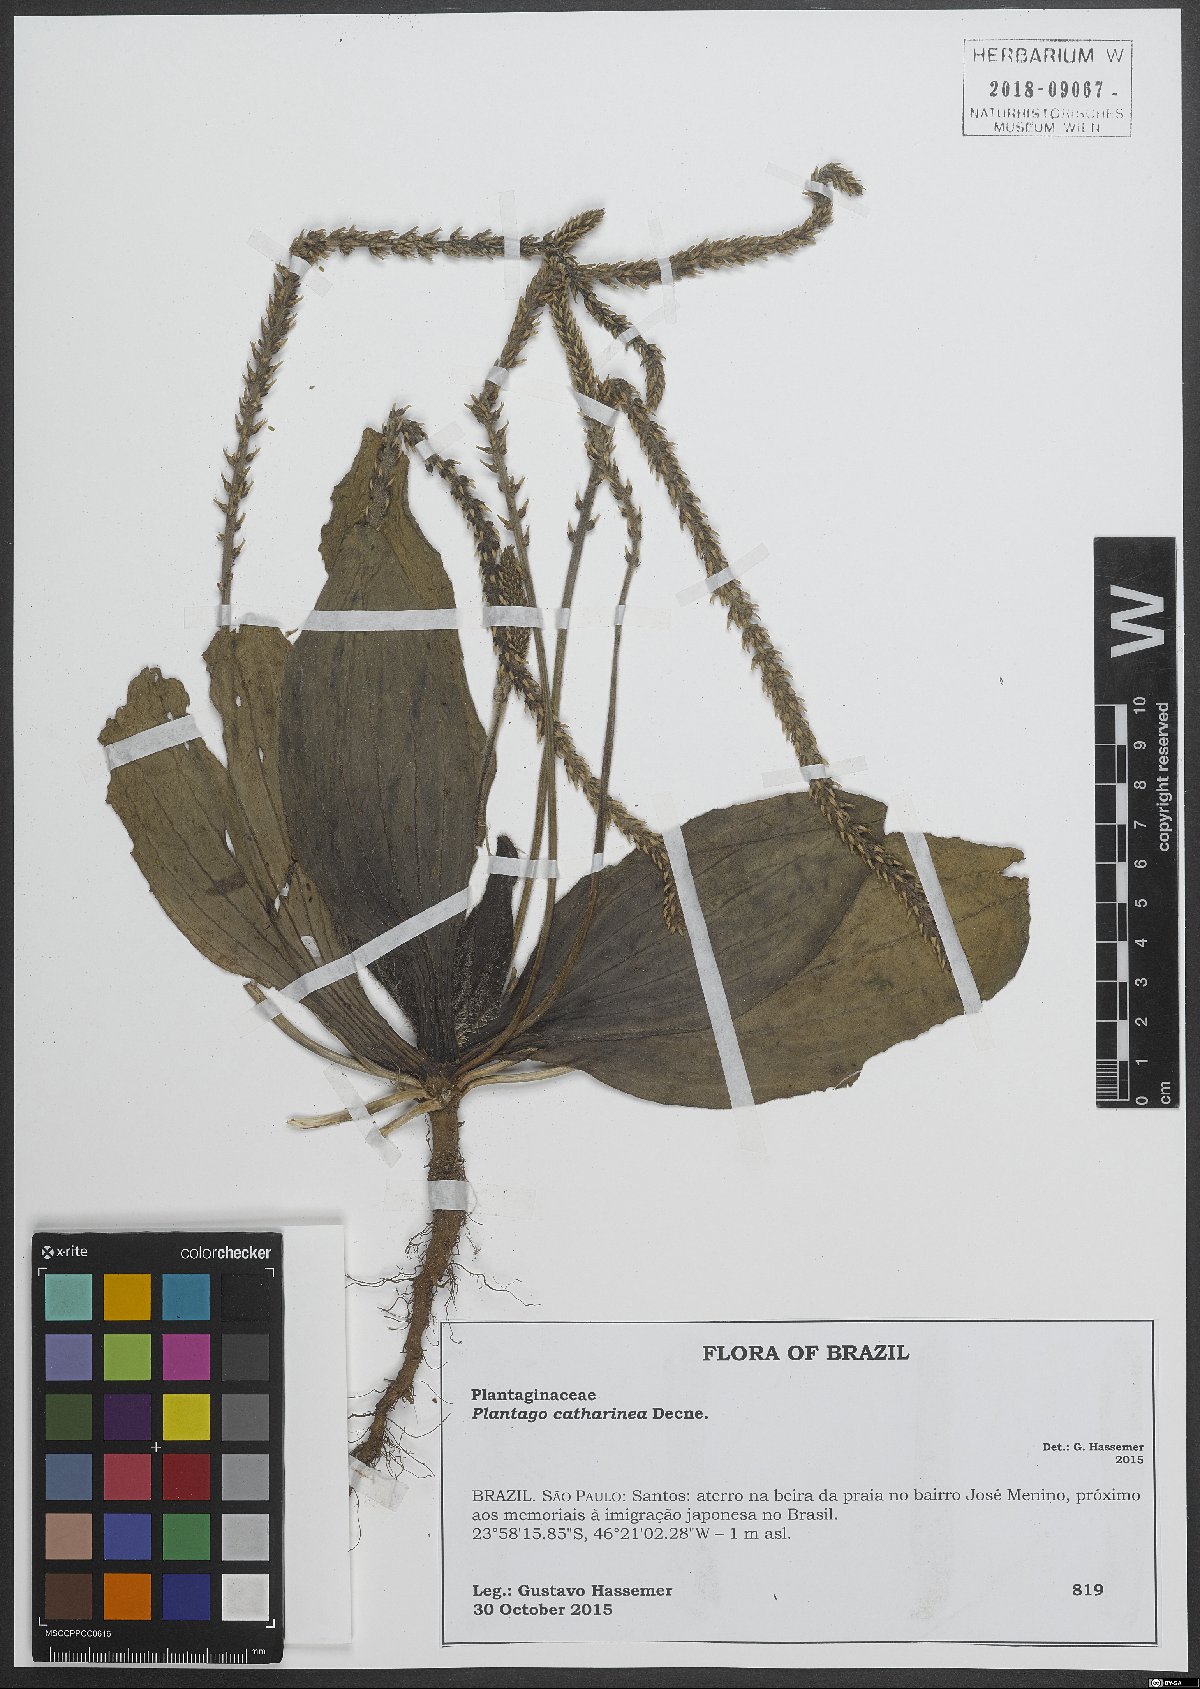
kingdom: Plantae
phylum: Tracheophyta
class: Magnoliopsida
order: Lamiales
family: Plantaginaceae
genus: Plantago
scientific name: Plantago catharinea
